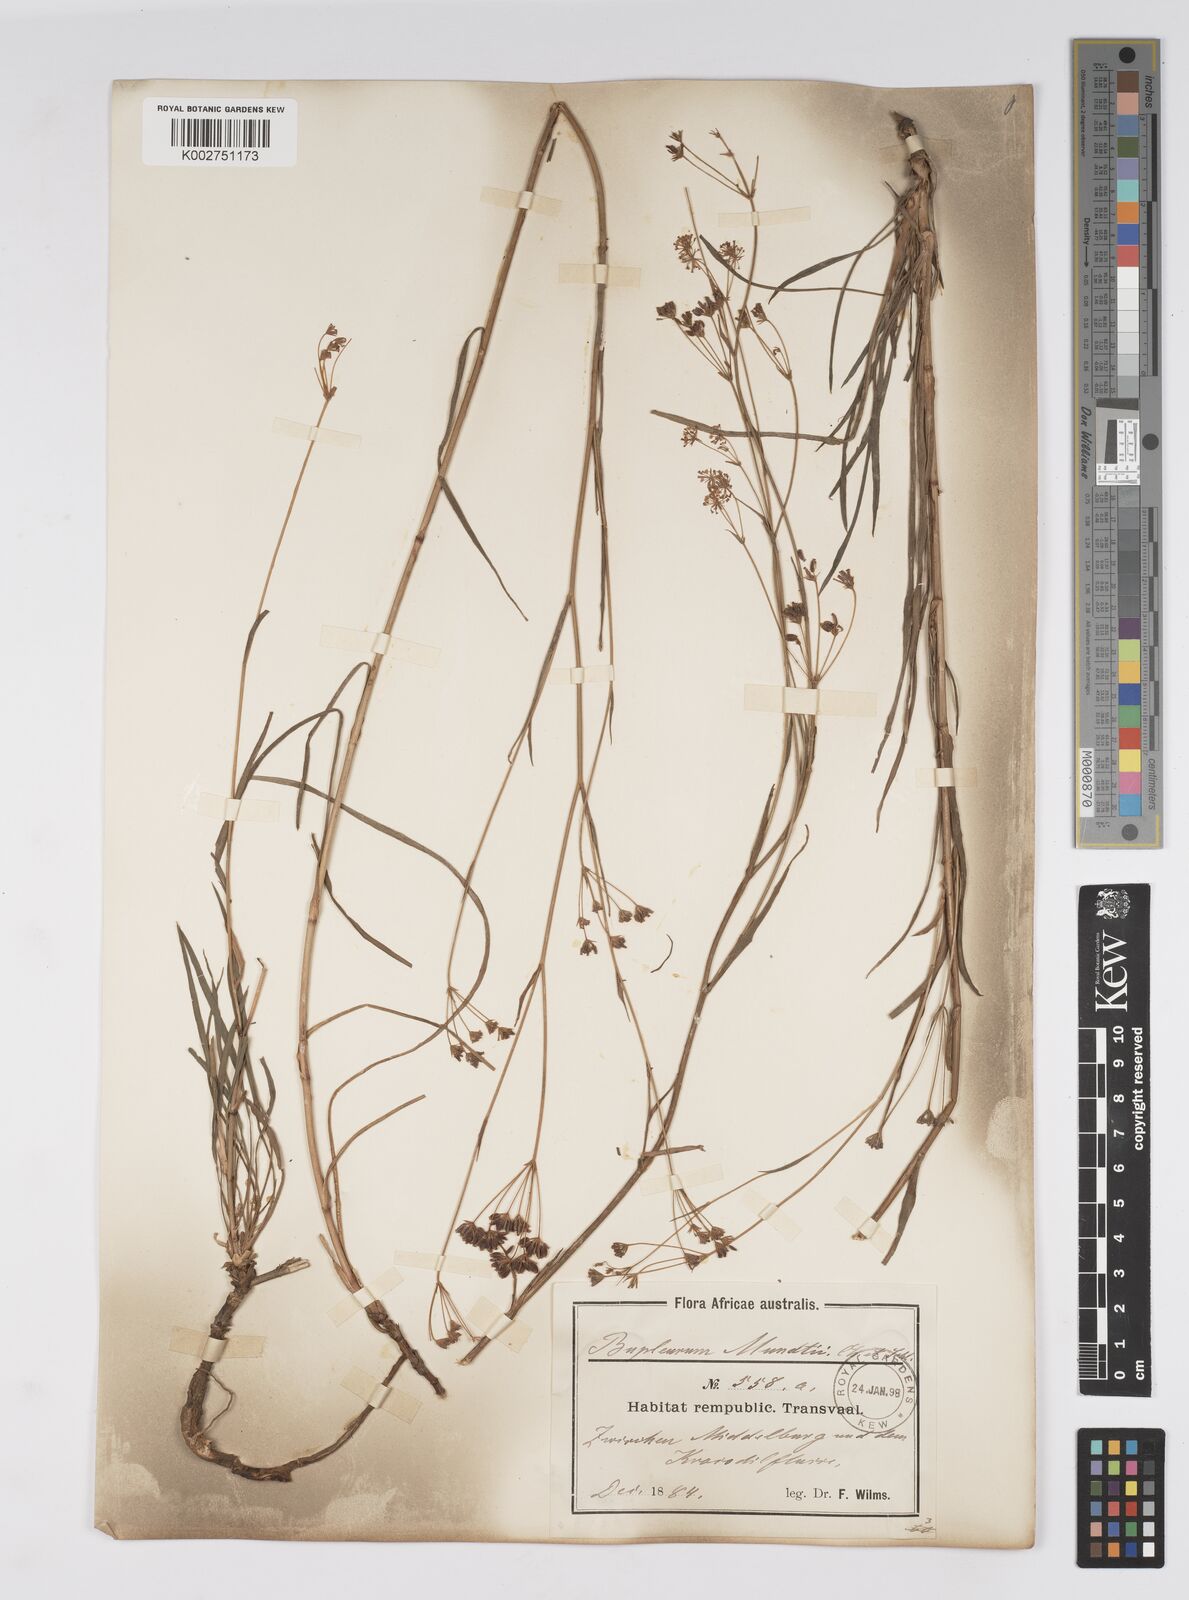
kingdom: Plantae
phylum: Tracheophyta
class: Magnoliopsida
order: Apiales
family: Apiaceae
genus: Bupleurum
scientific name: Bupleurum mundii
